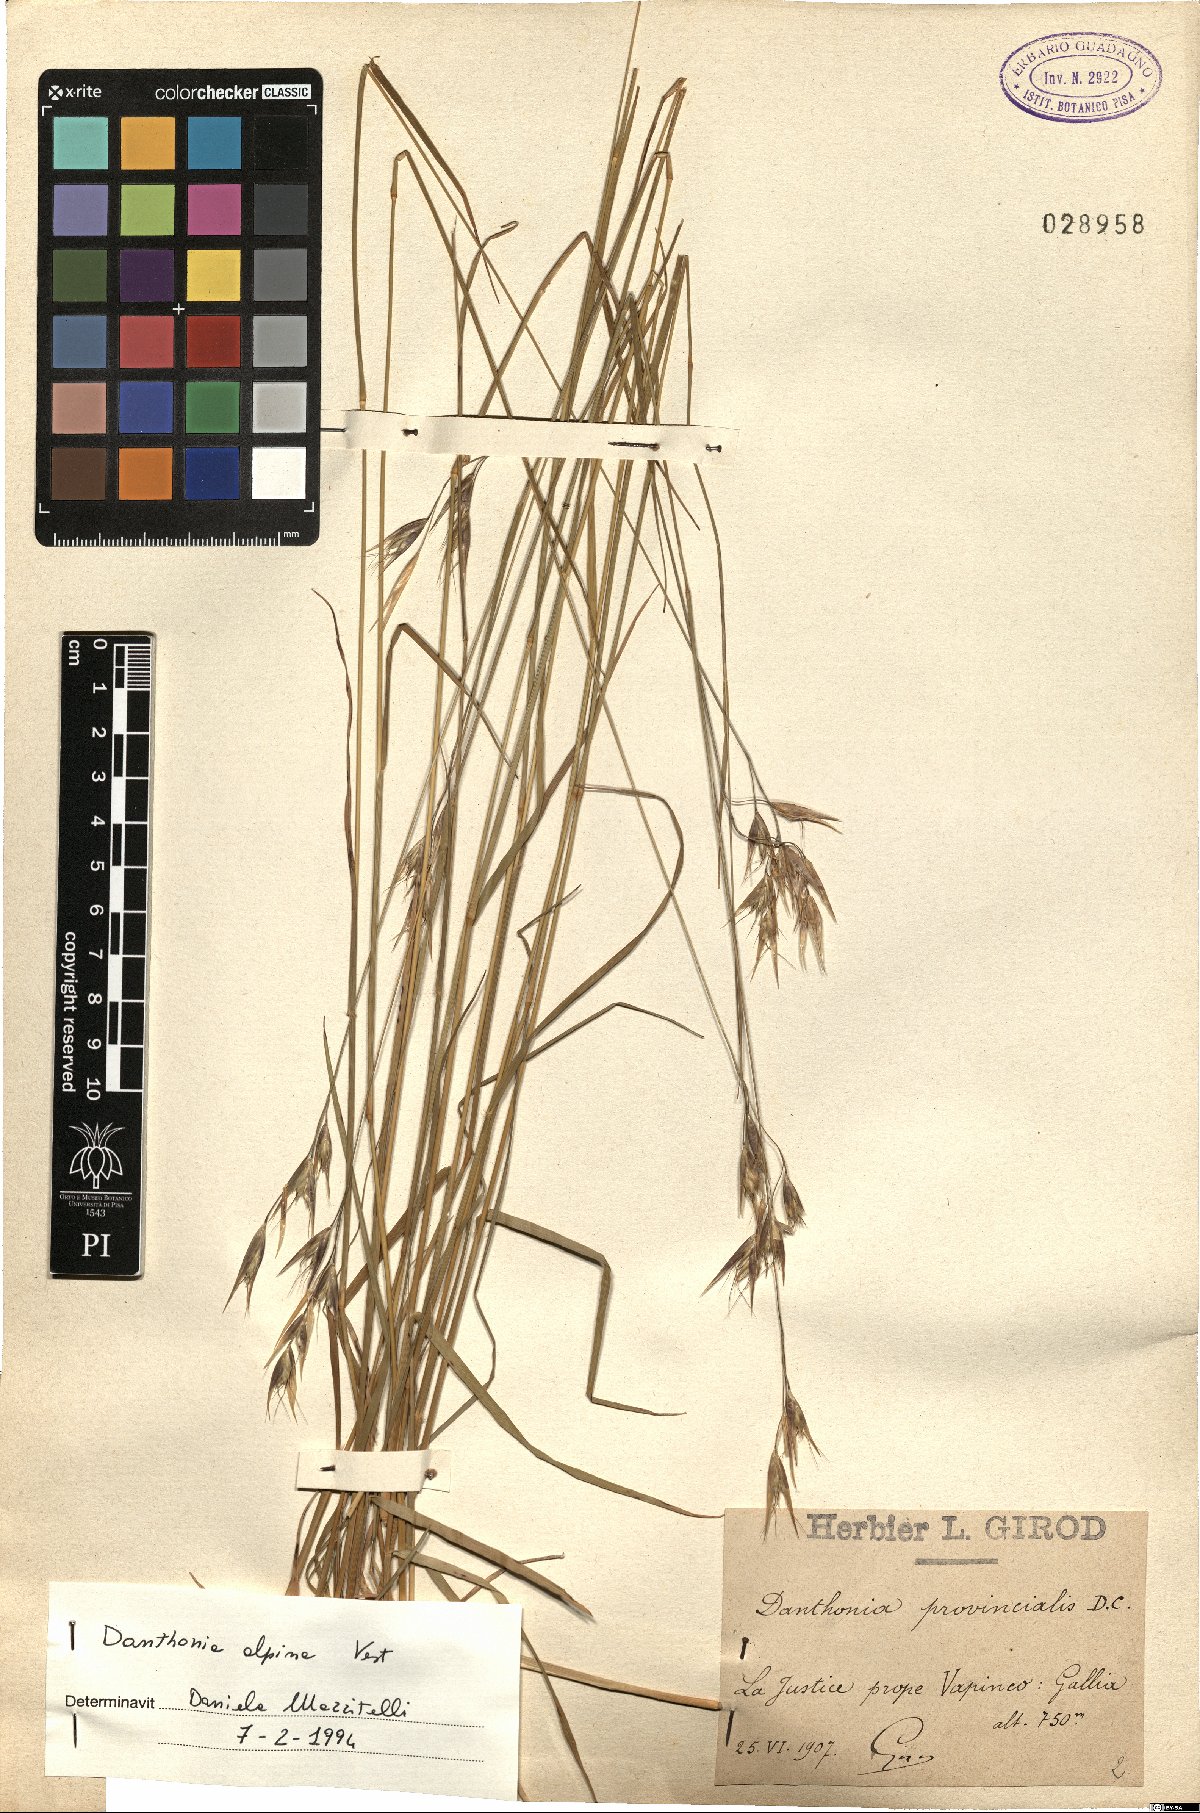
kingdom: Plantae
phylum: Tracheophyta
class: Liliopsida
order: Poales
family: Poaceae
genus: Danthonia
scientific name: Danthonia alpina
